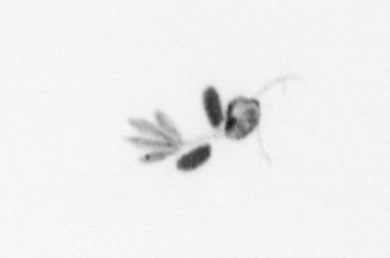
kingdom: Animalia
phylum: Arthropoda
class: Copepoda
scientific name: Copepoda
